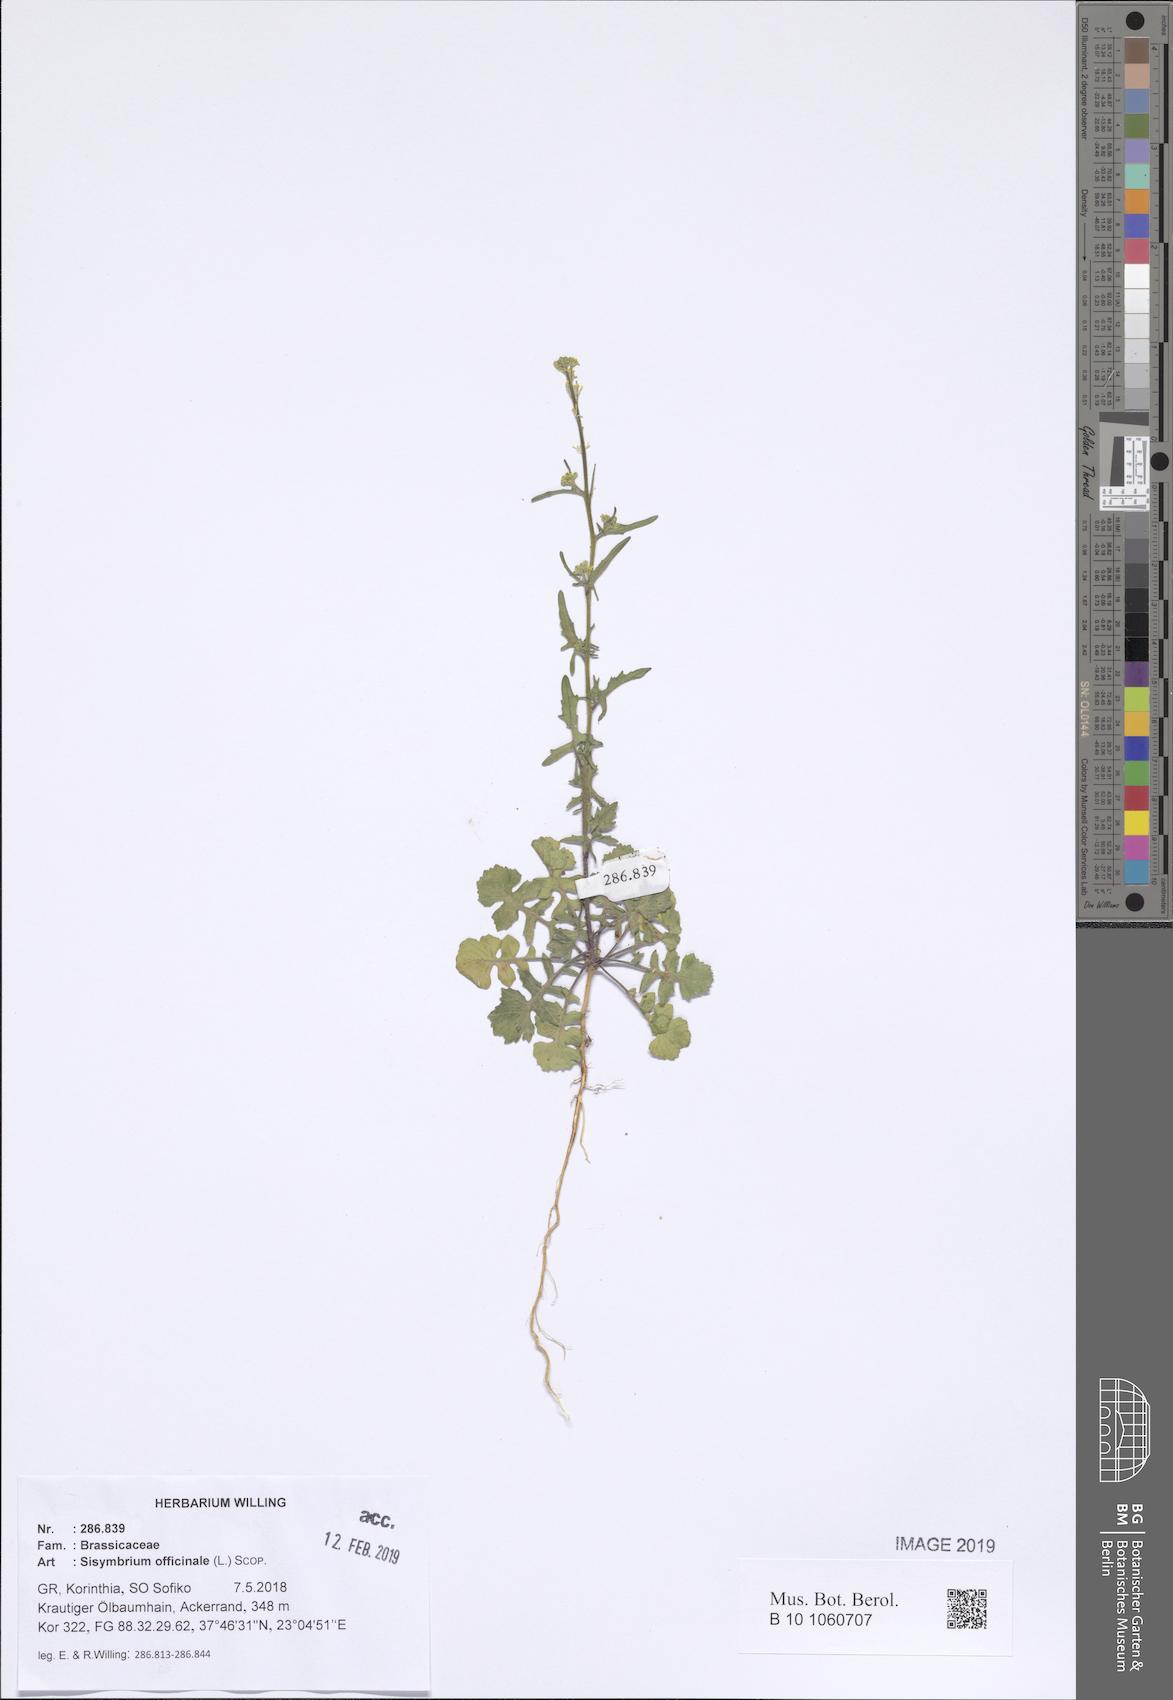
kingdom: Plantae
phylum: Tracheophyta
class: Magnoliopsida
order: Brassicales
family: Brassicaceae
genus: Sisymbrium
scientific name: Sisymbrium officinale
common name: Hedge mustard
